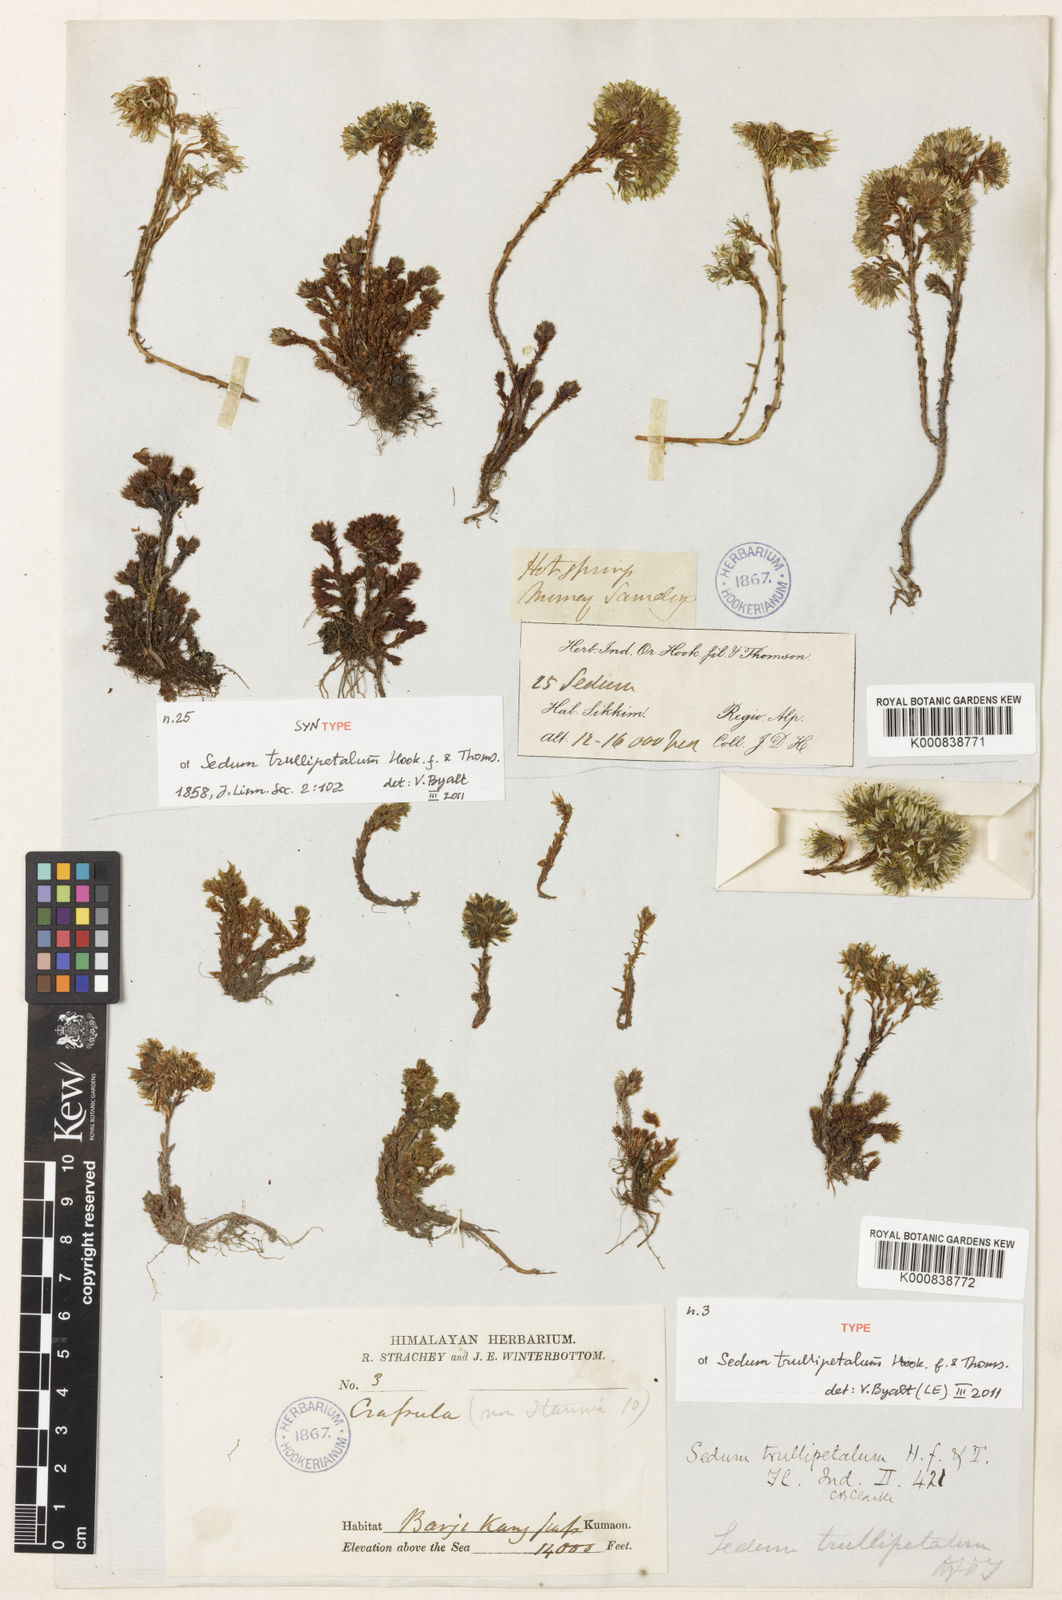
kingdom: Plantae
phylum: Tracheophyta
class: Magnoliopsida
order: Saxifragales
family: Crassulaceae
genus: Sedum
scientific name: Sedum trullipetalum
